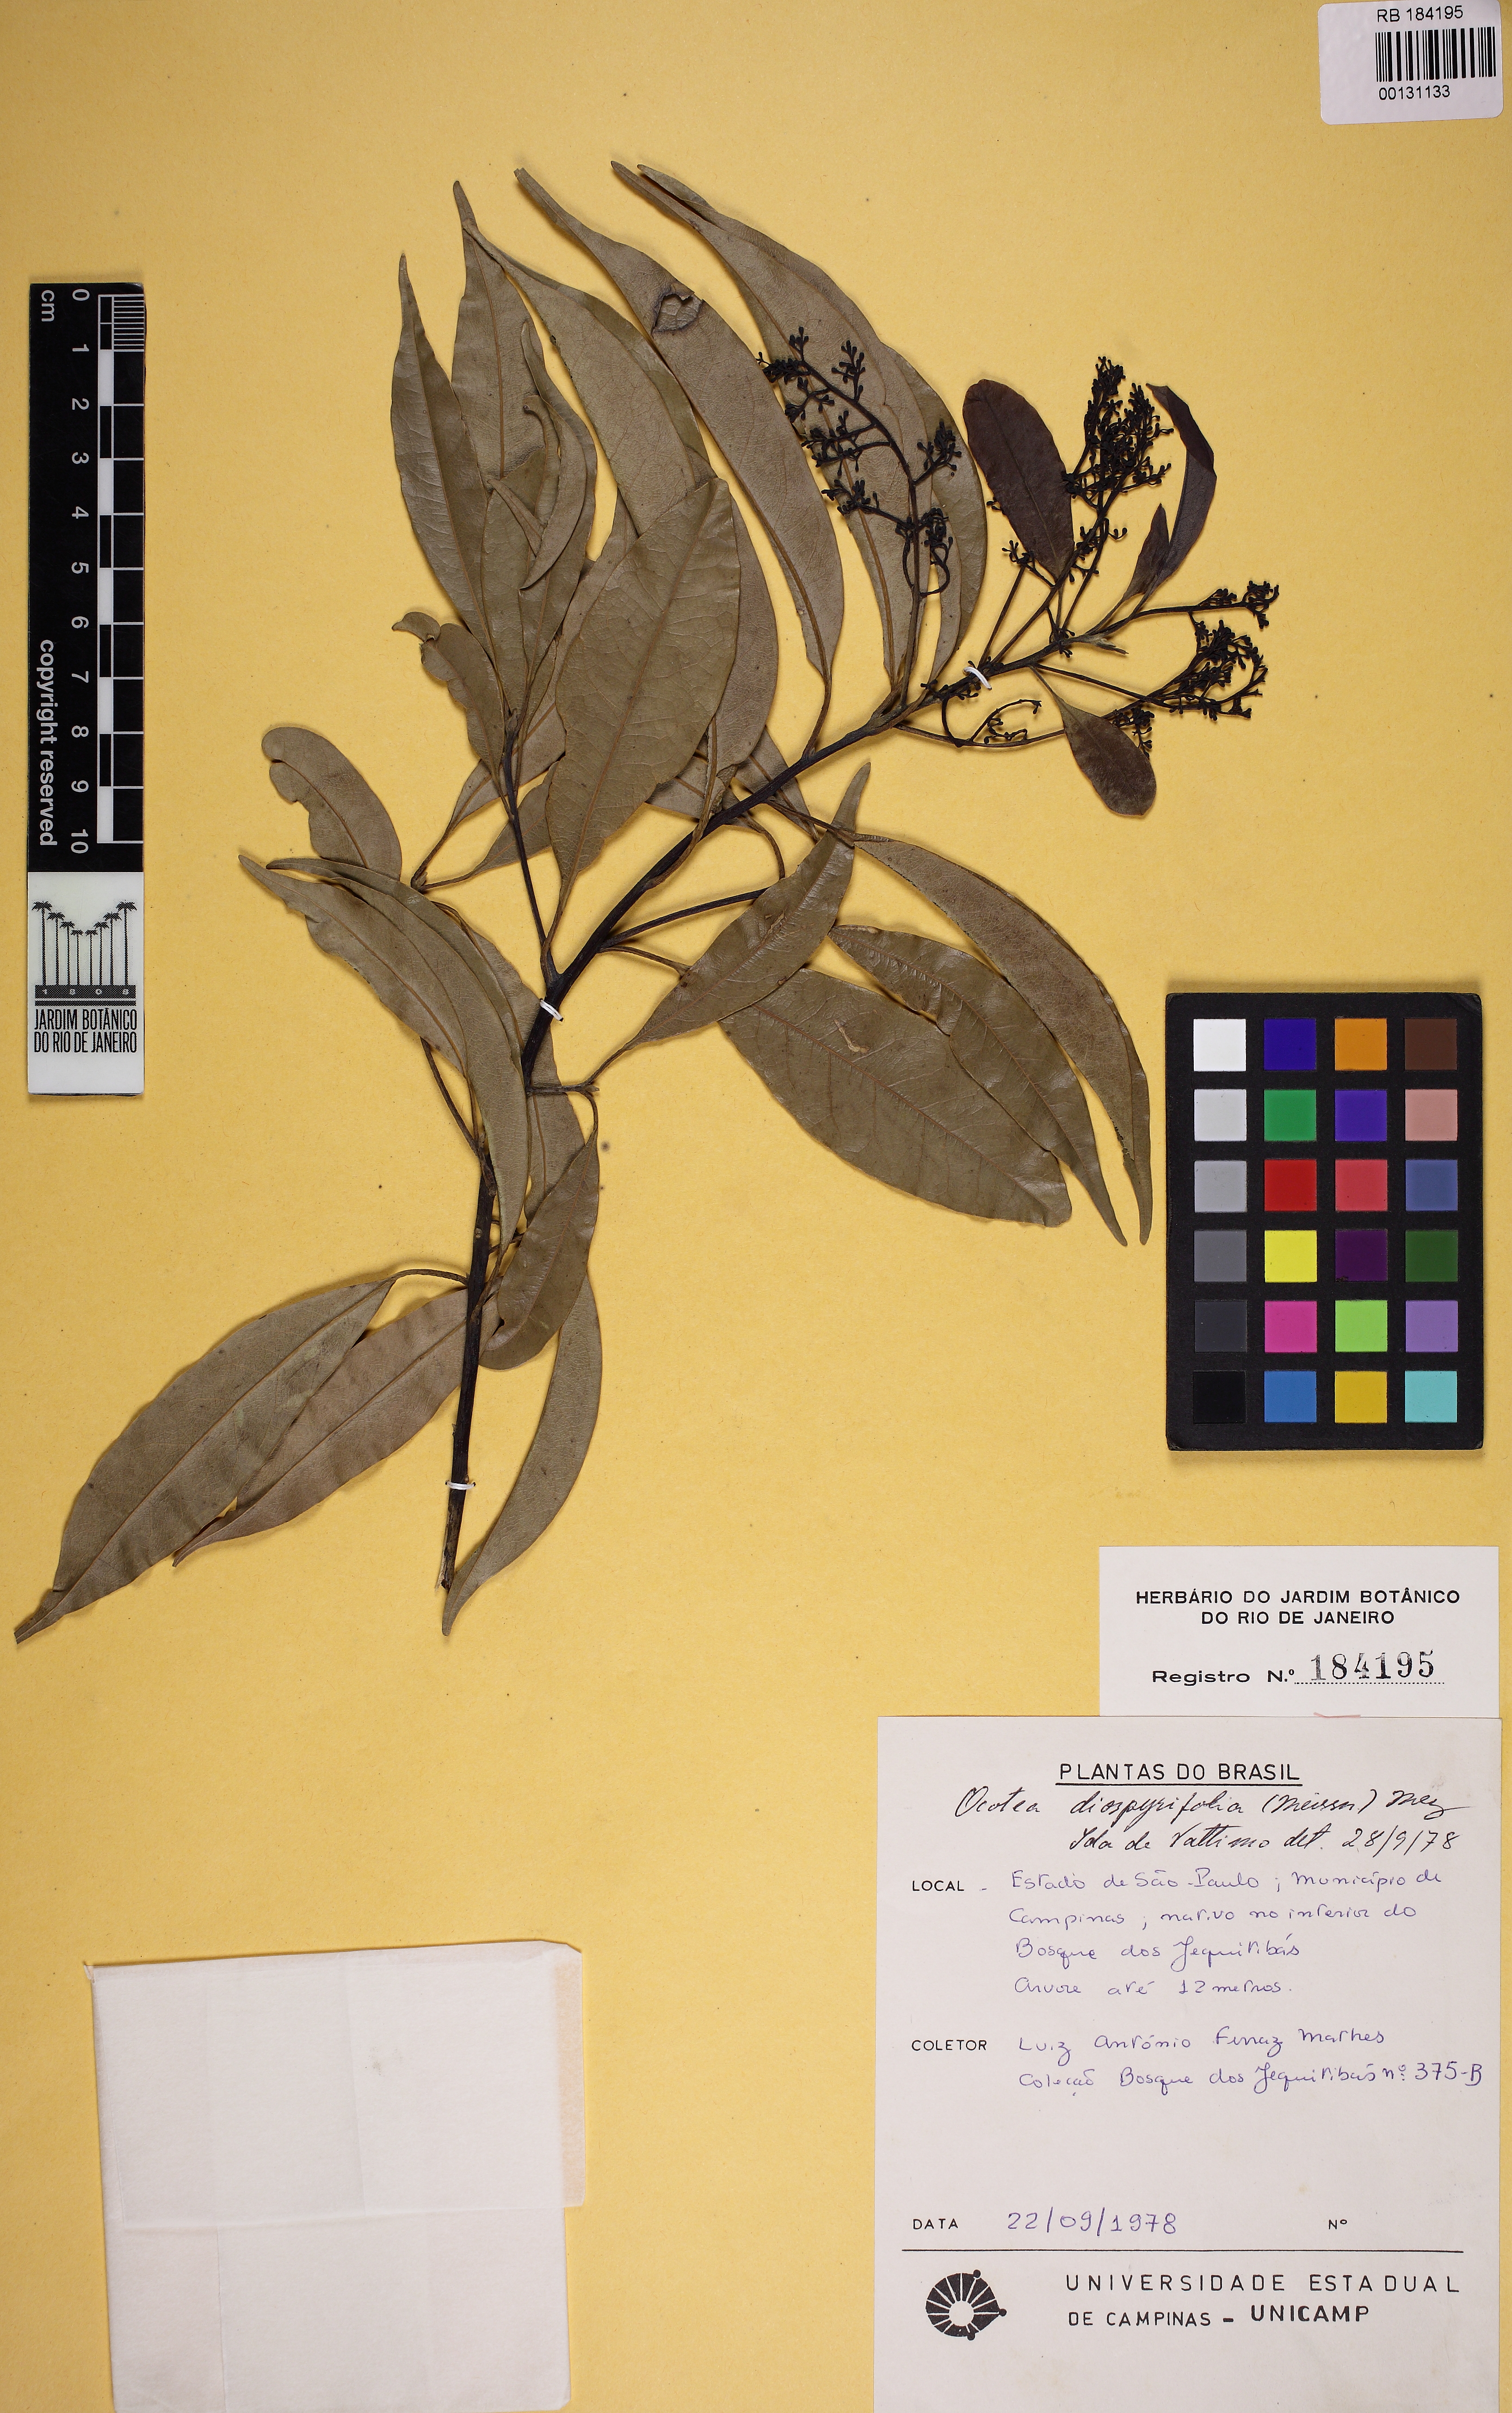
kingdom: Plantae
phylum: Tracheophyta
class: Magnoliopsida
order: Laurales
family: Lauraceae
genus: Ocotea
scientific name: Ocotea diospyrifolia
